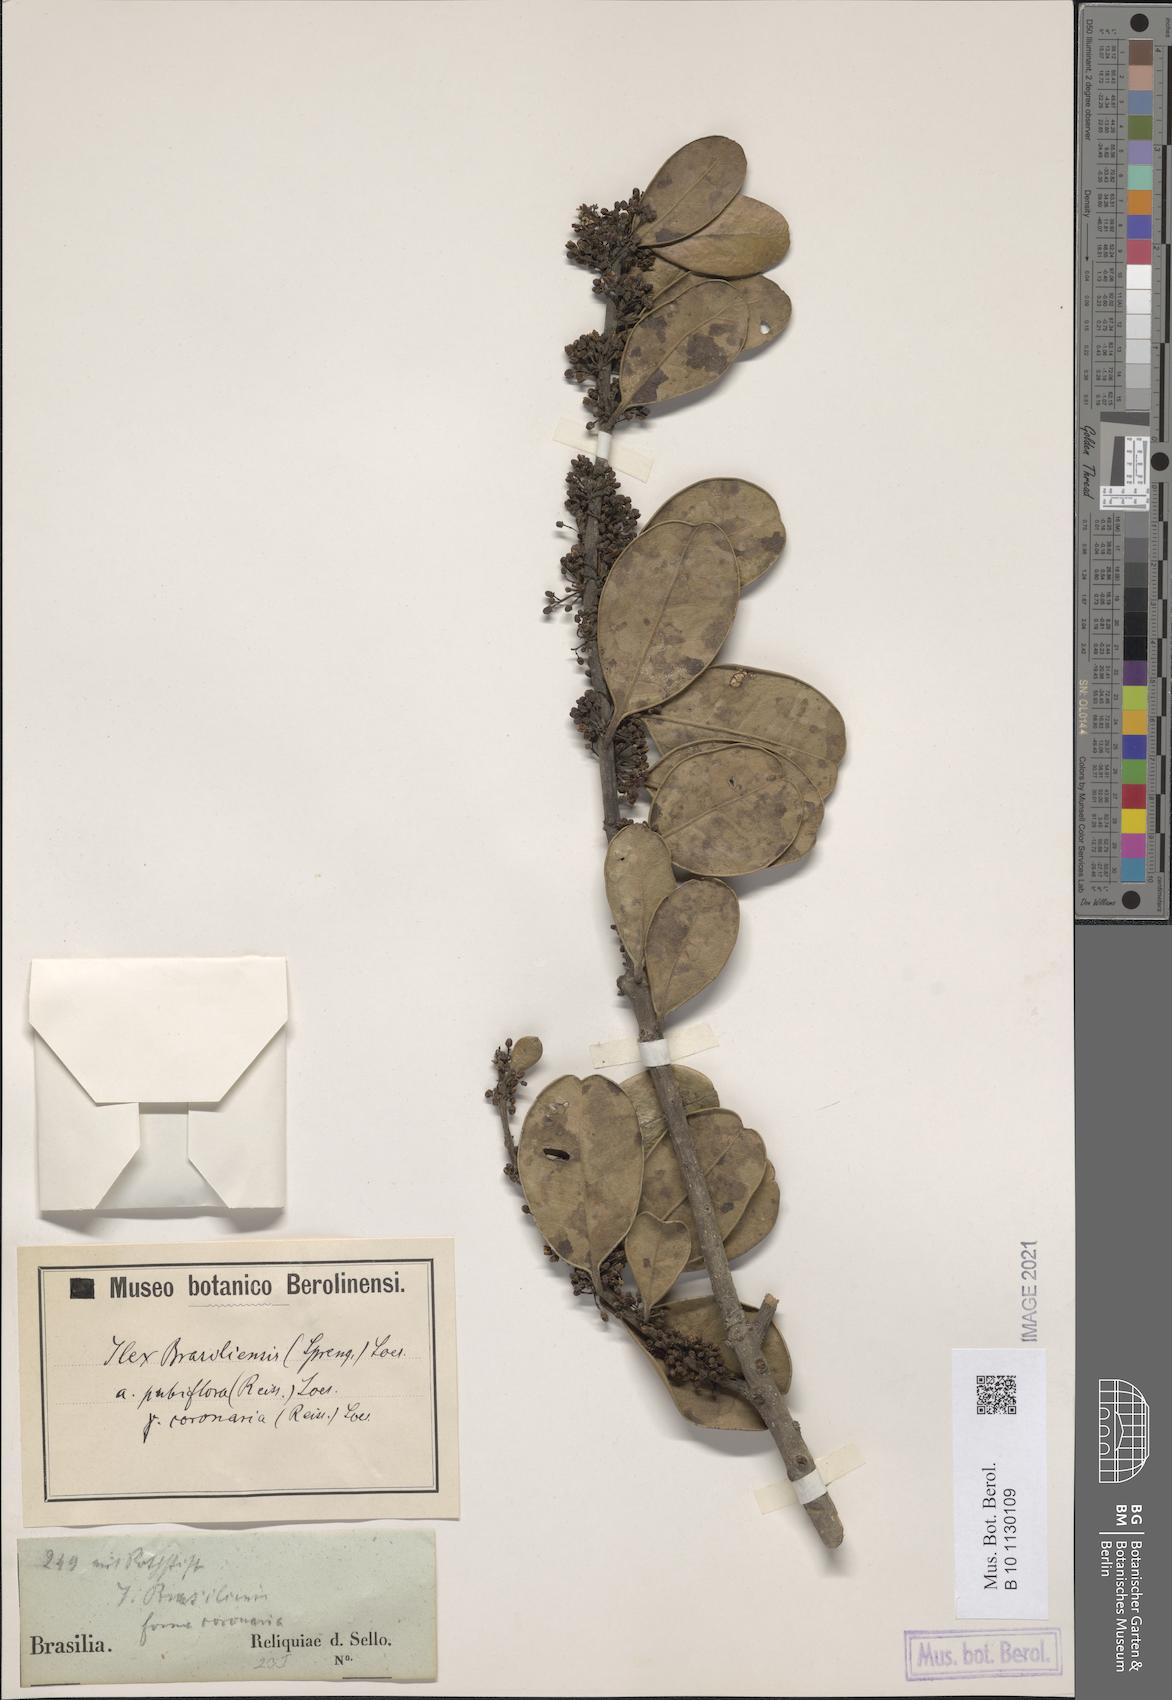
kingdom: Plantae
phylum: Tracheophyta
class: Magnoliopsida
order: Aquifoliales
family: Aquifoliaceae
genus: Ilex
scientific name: Ilex coronaria
